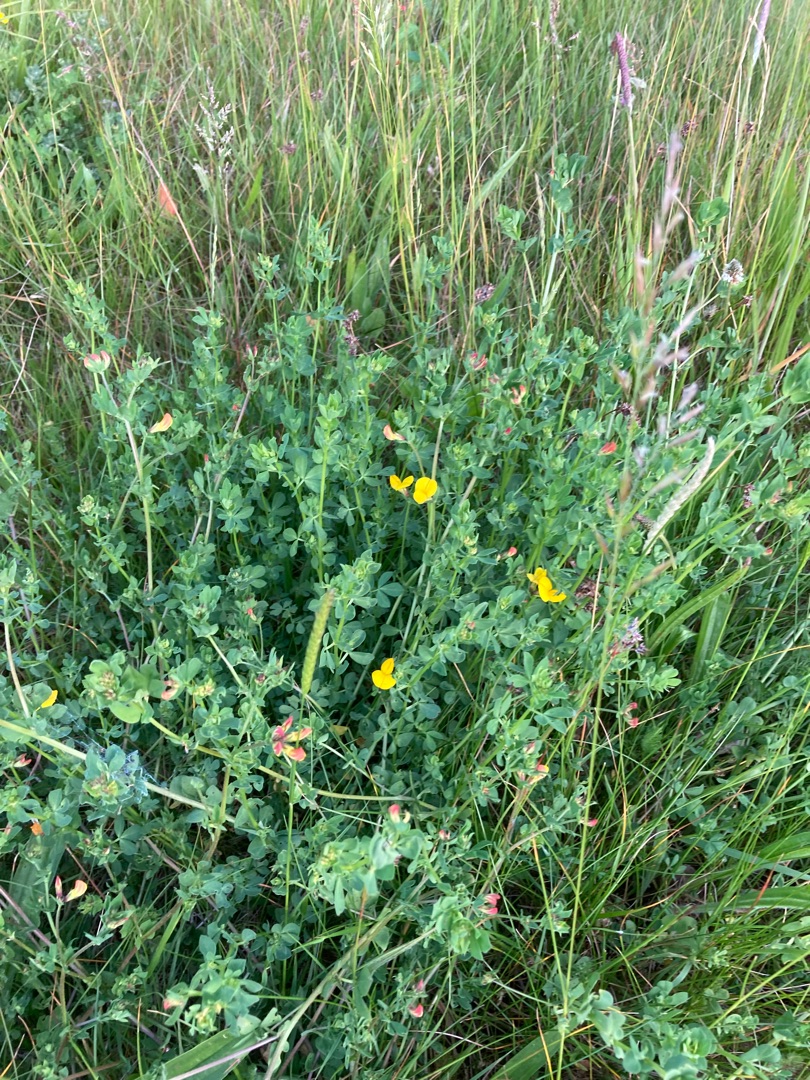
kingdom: Plantae
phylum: Tracheophyta
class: Magnoliopsida
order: Fabales
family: Fabaceae
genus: Lotus
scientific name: Lotus corniculatus
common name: Almindelig kællingetand
